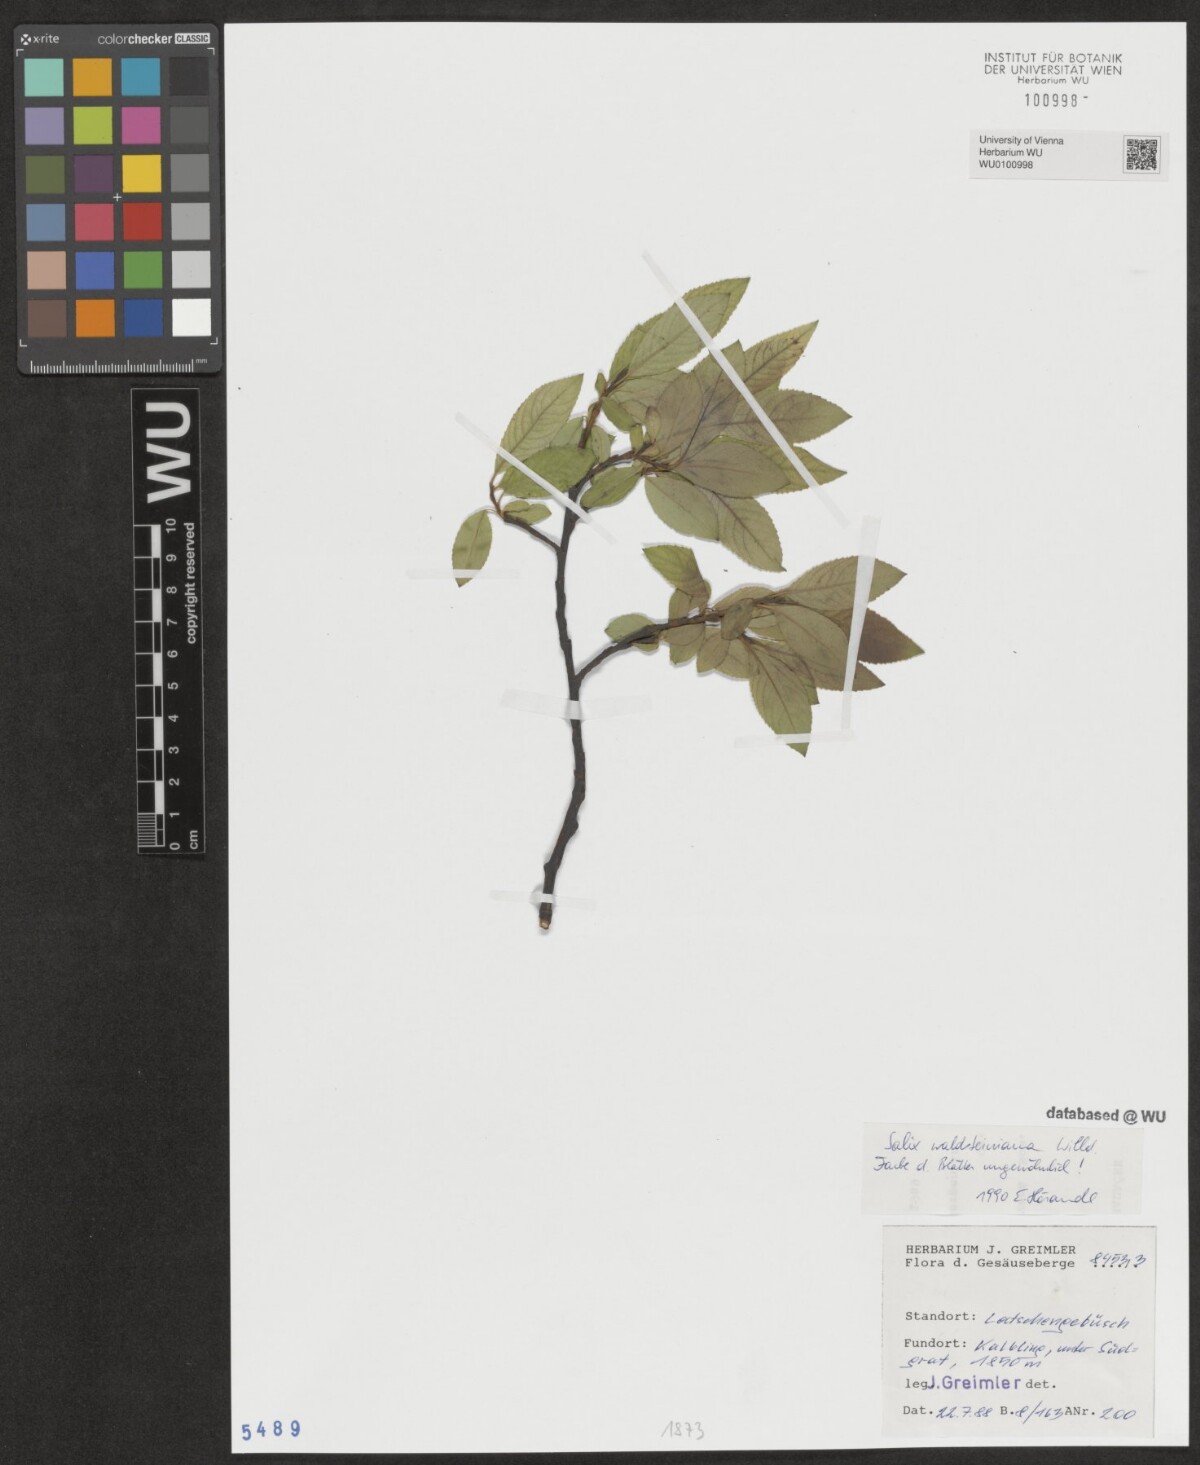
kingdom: Plantae
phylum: Tracheophyta
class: Magnoliopsida
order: Malpighiales
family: Salicaceae
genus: Salix
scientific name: Salix waldsteiniana
